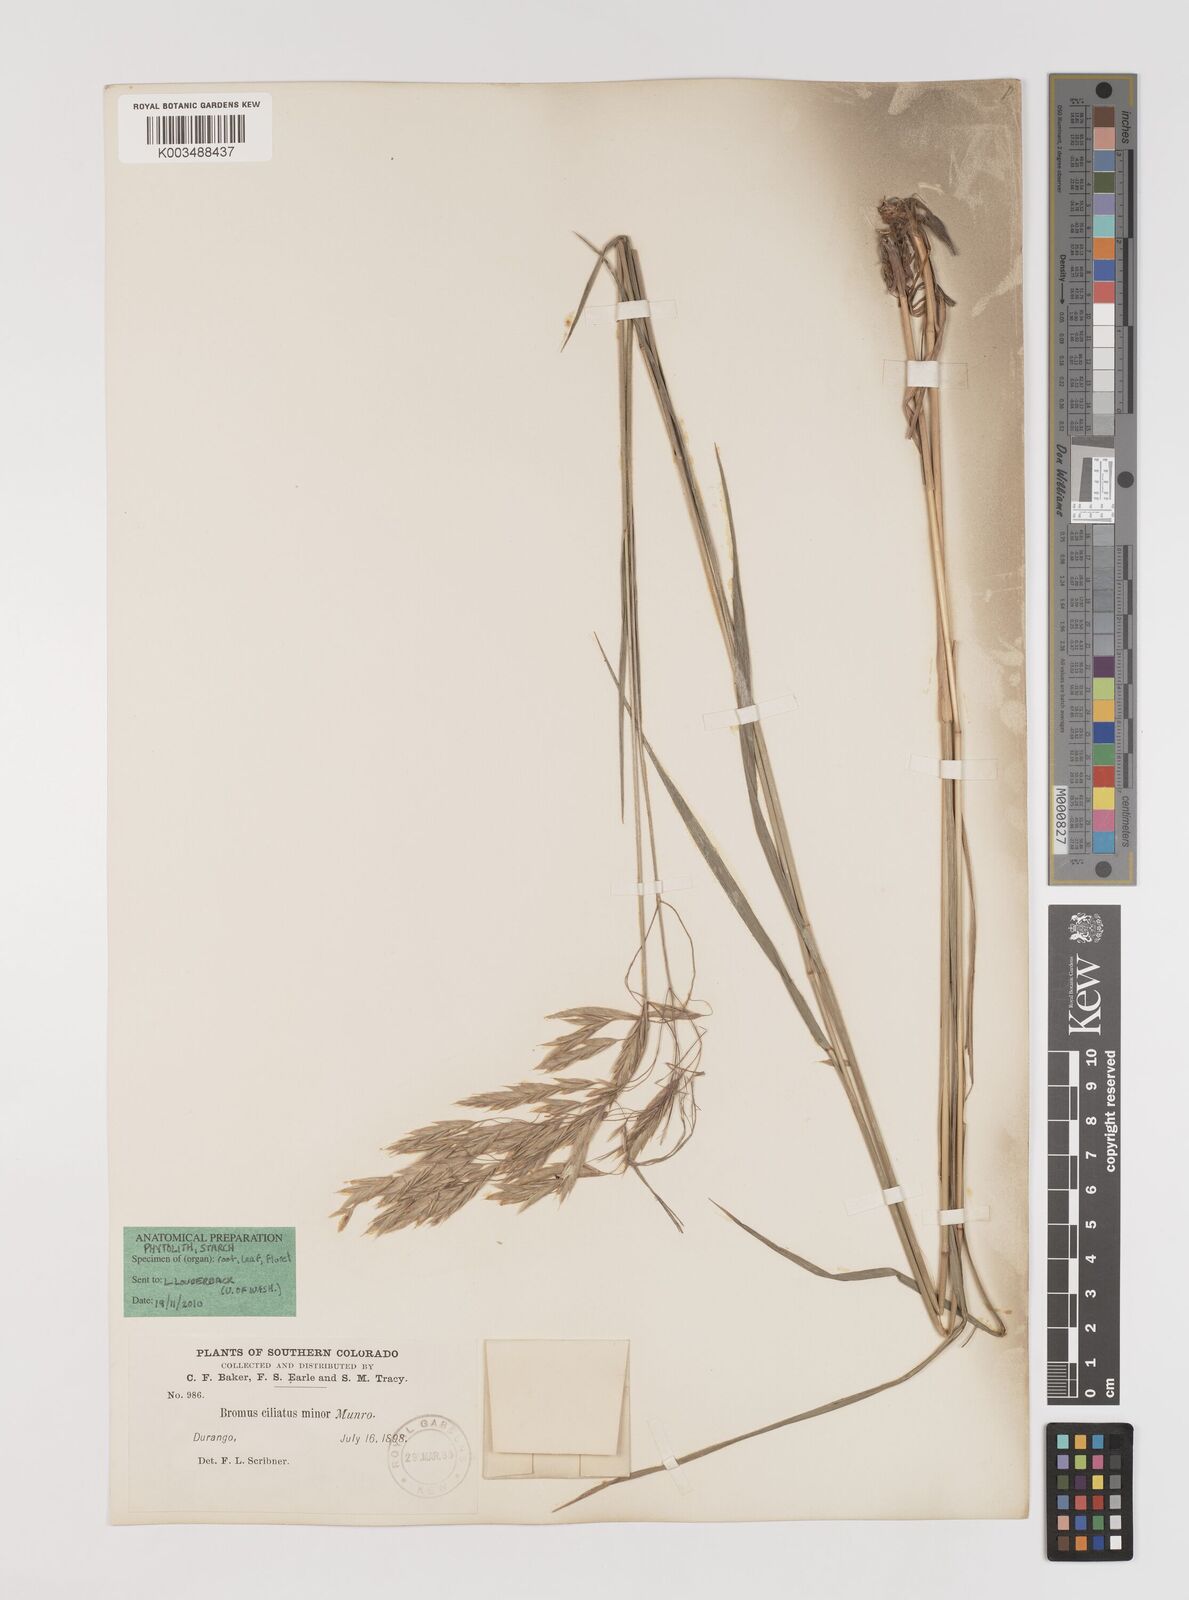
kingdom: Plantae
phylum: Tracheophyta
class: Liliopsida
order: Poales
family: Poaceae
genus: Bromus
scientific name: Bromus ciliatus
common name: Fringe brome
